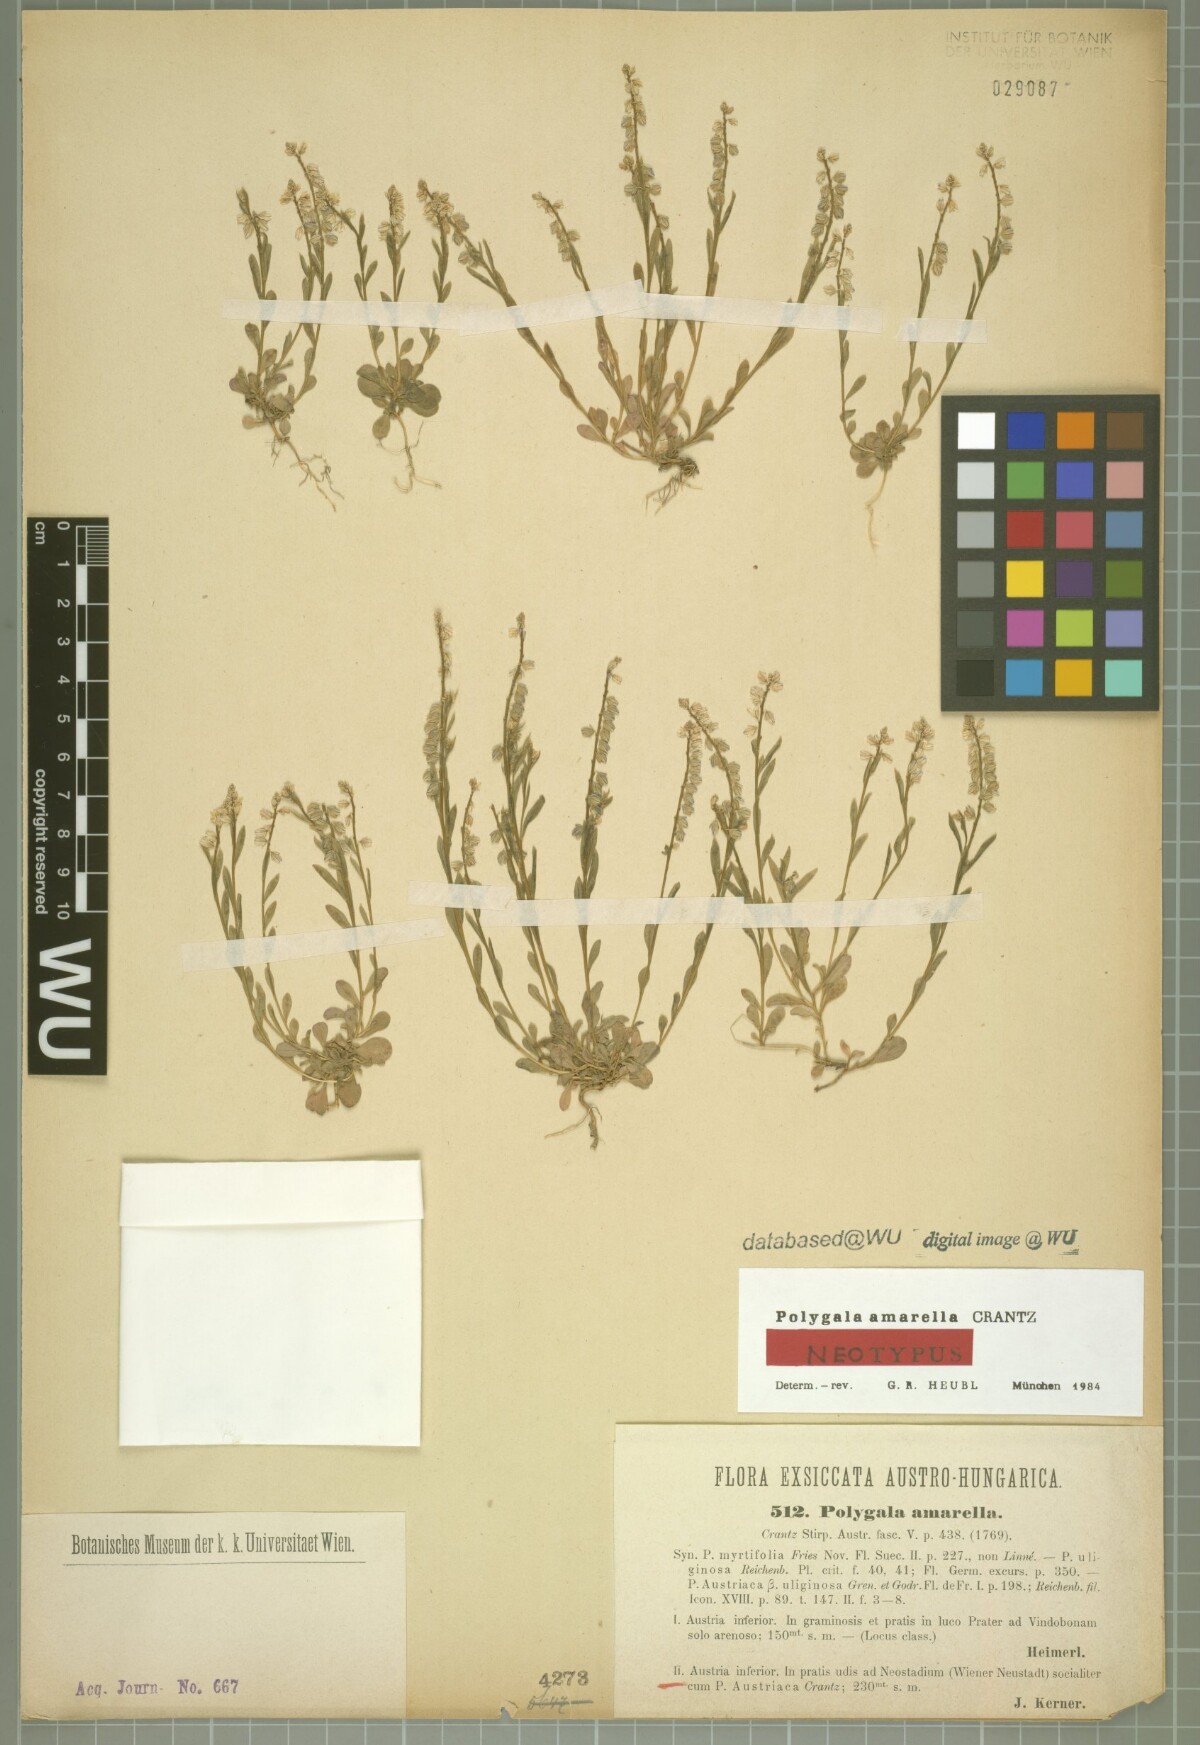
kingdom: Plantae
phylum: Tracheophyta
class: Magnoliopsida
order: Fabales
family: Polygalaceae
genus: Polygala
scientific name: Polygala amarella
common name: Dwarf milkwort
